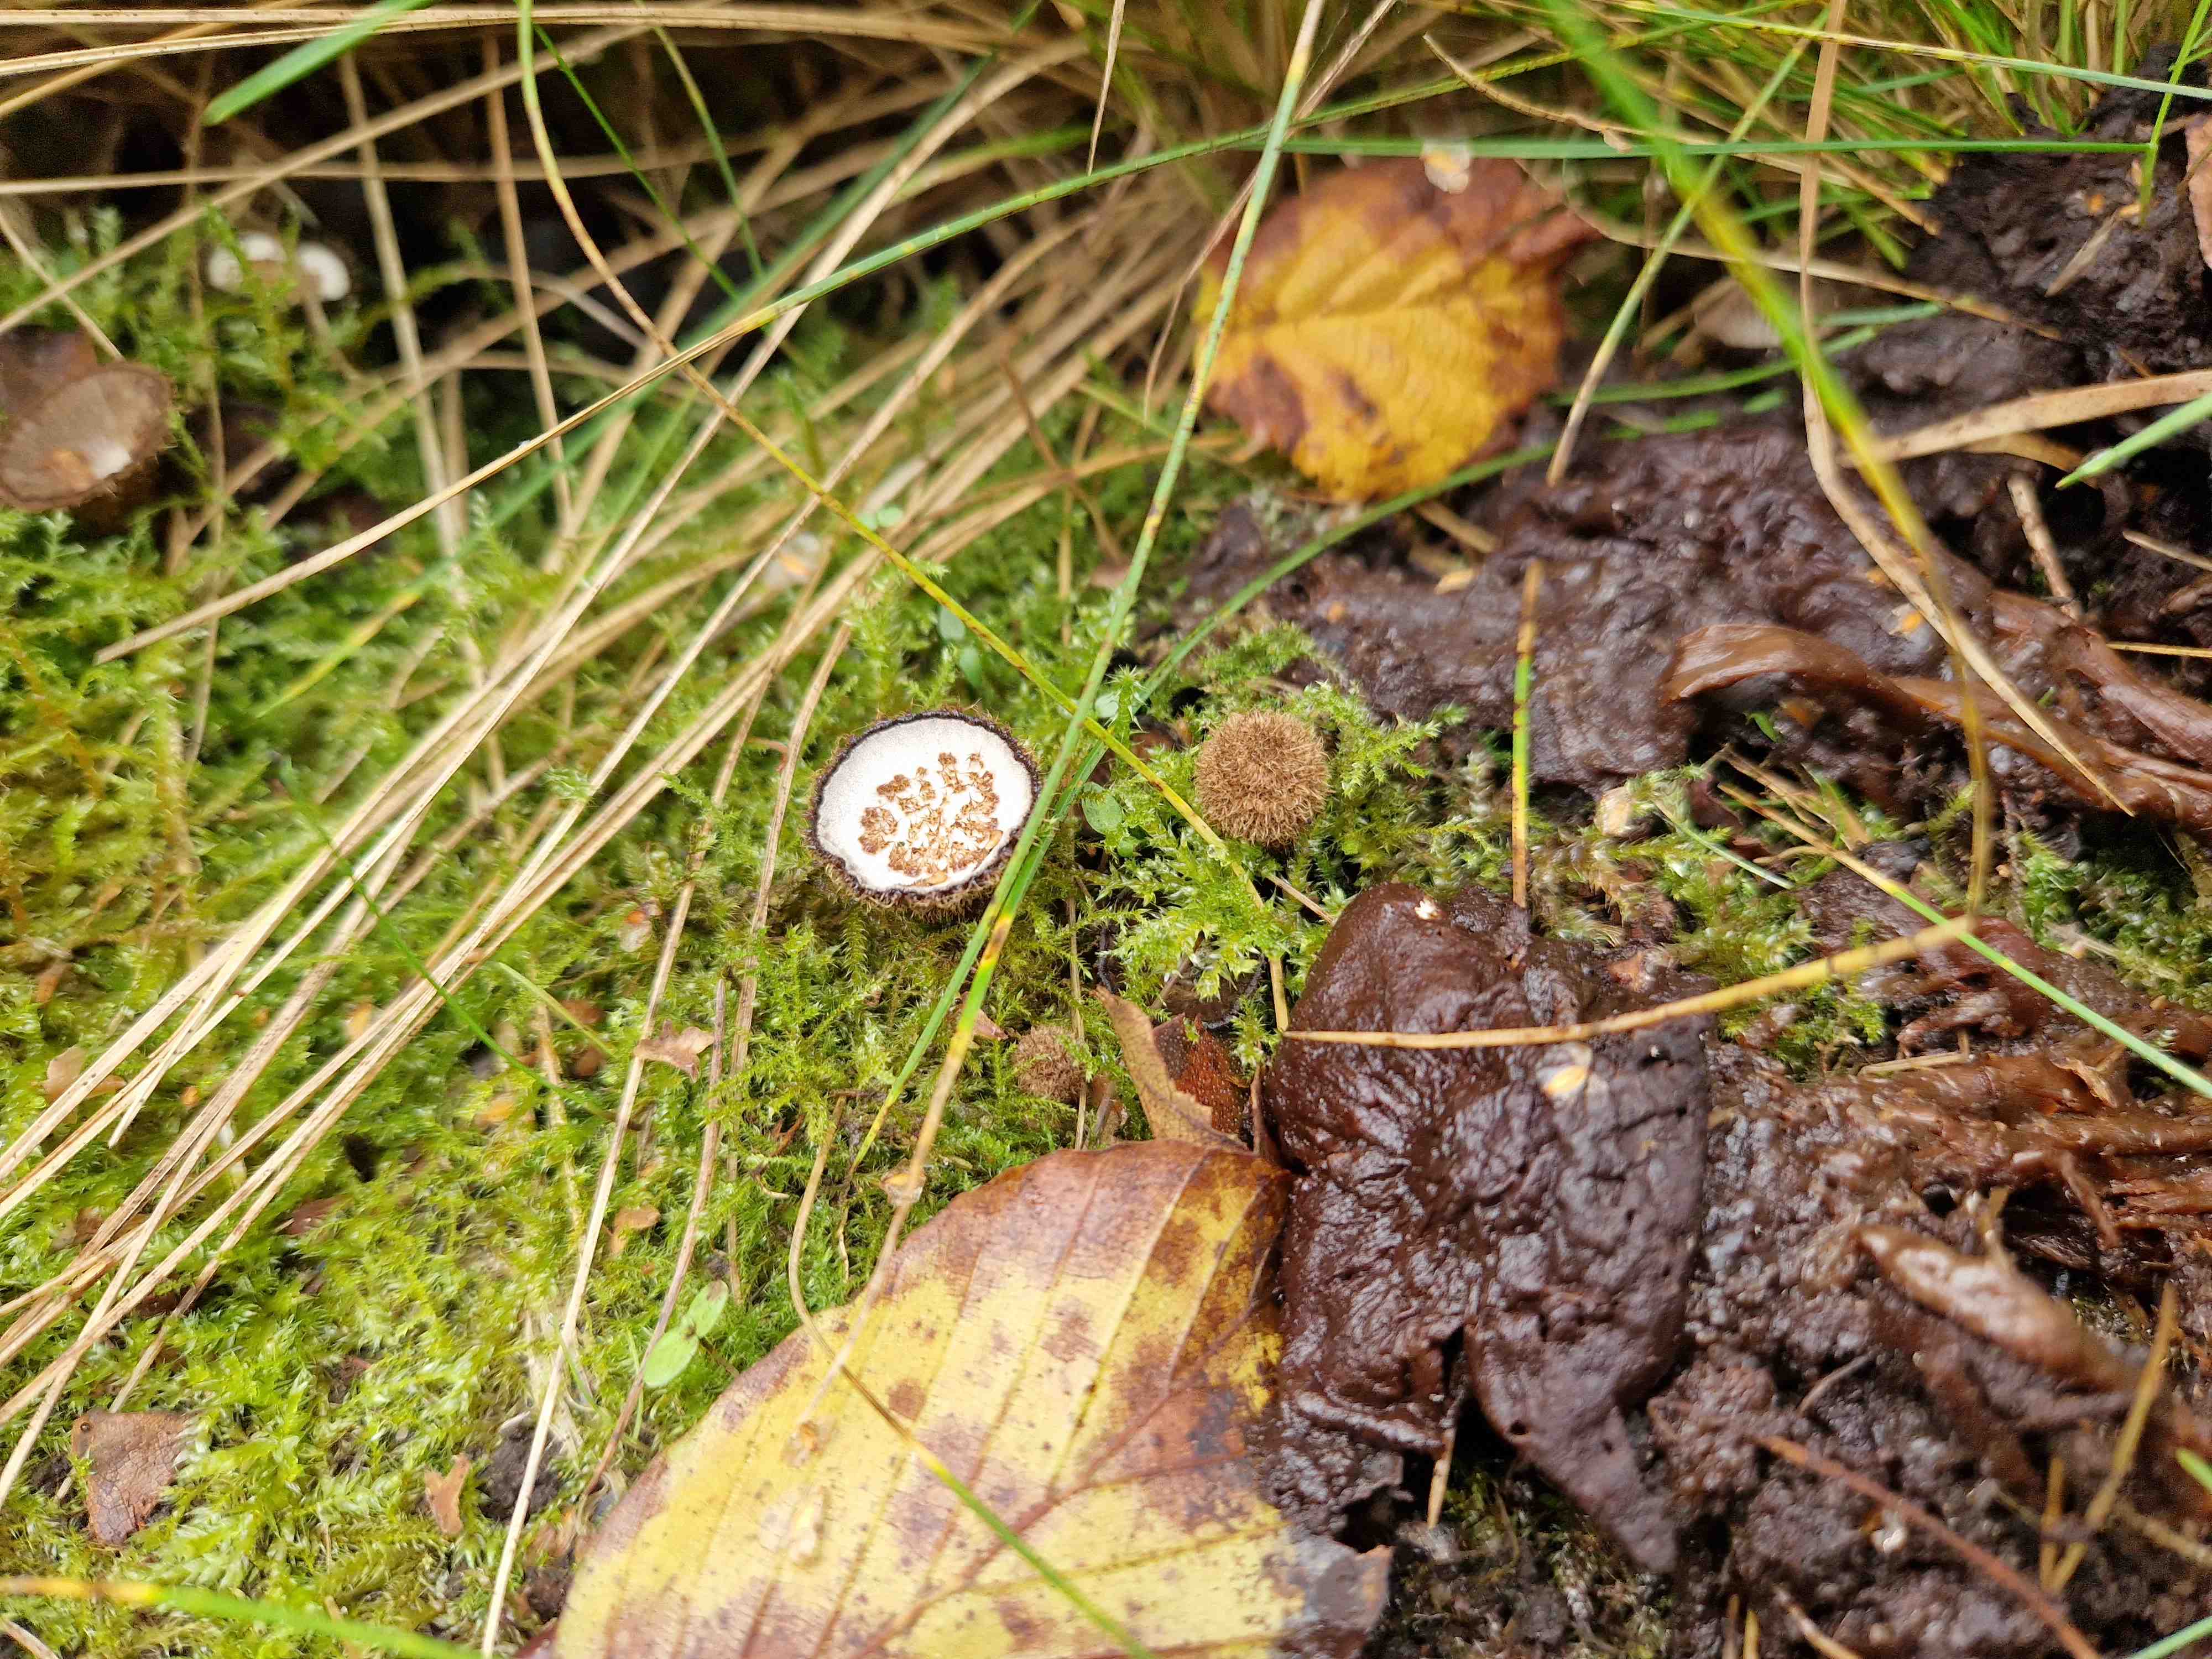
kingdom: Fungi
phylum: Basidiomycota
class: Agaricomycetes
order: Agaricales
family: Agaricaceae
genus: Cyathus
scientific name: Cyathus striatus
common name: stribet redesvamp
